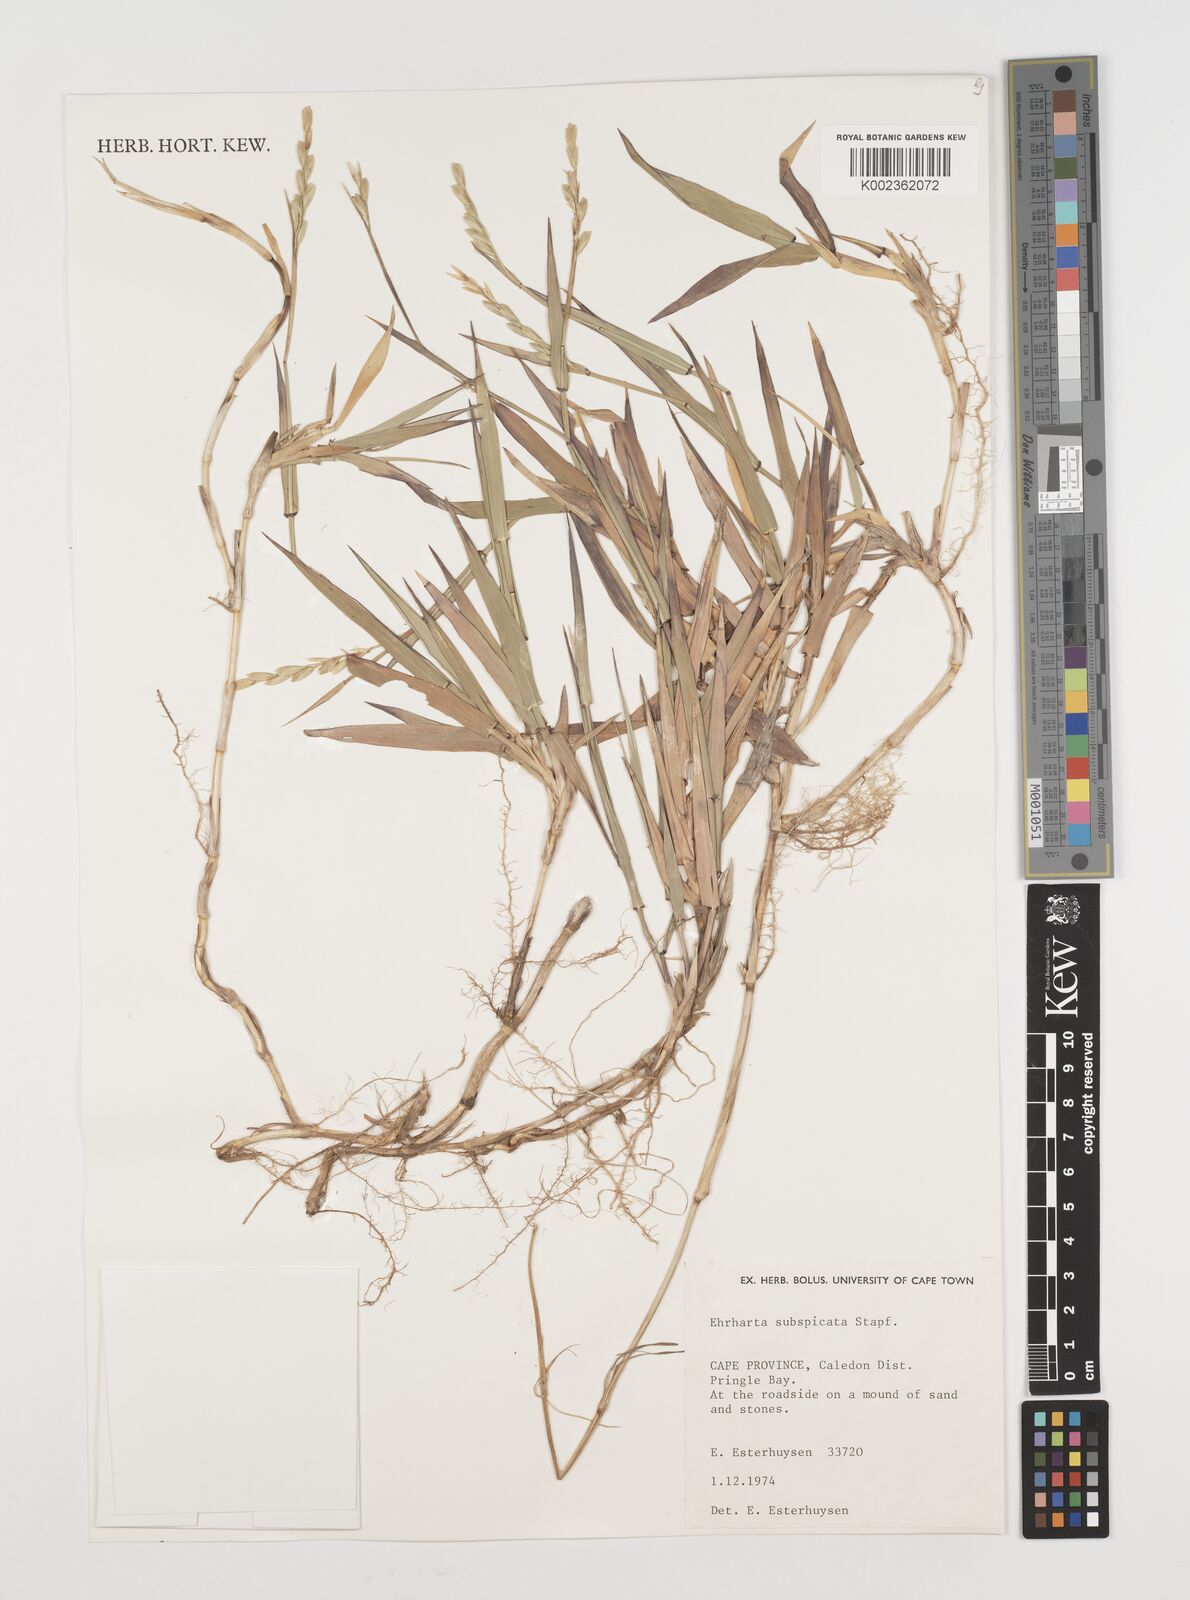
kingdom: Plantae
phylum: Tracheophyta
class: Liliopsida
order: Poales
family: Poaceae
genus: Ehrharta
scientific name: Ehrharta rehmannii
